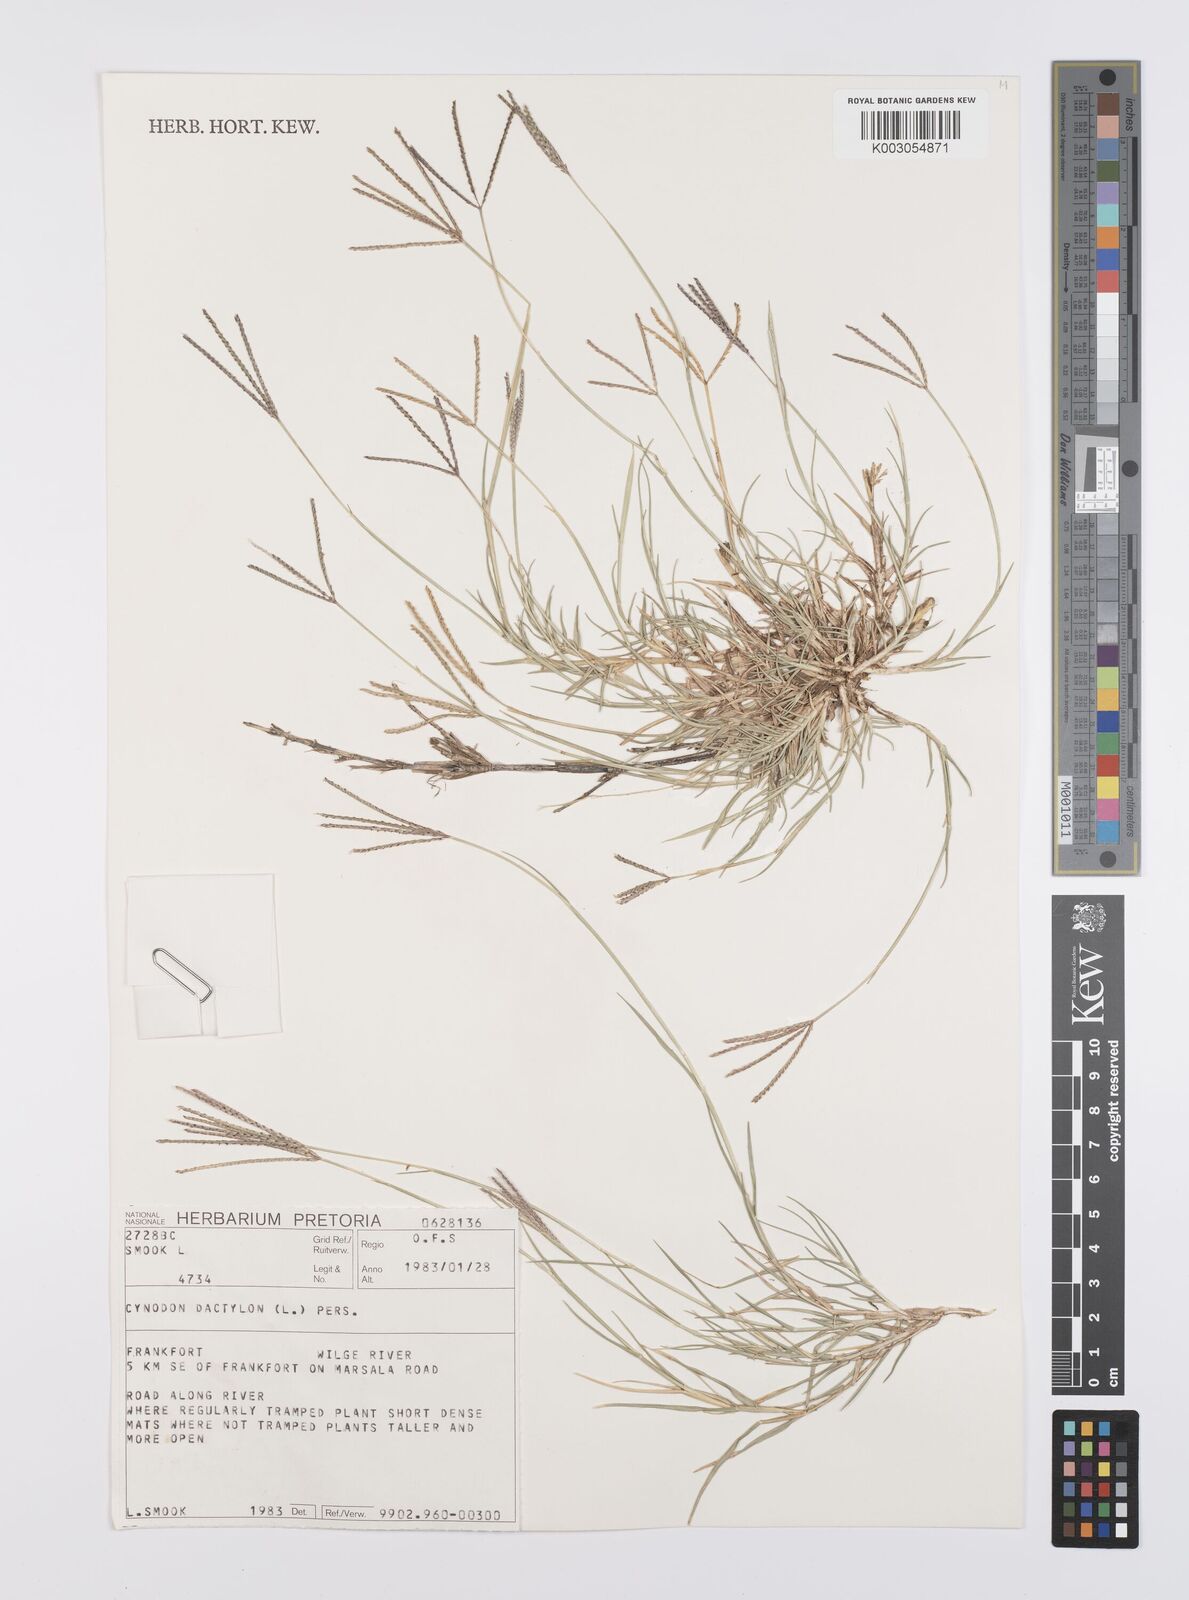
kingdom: Plantae
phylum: Tracheophyta
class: Liliopsida
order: Poales
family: Poaceae
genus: Cynodon
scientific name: Cynodon dactylon
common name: Bermuda grass
